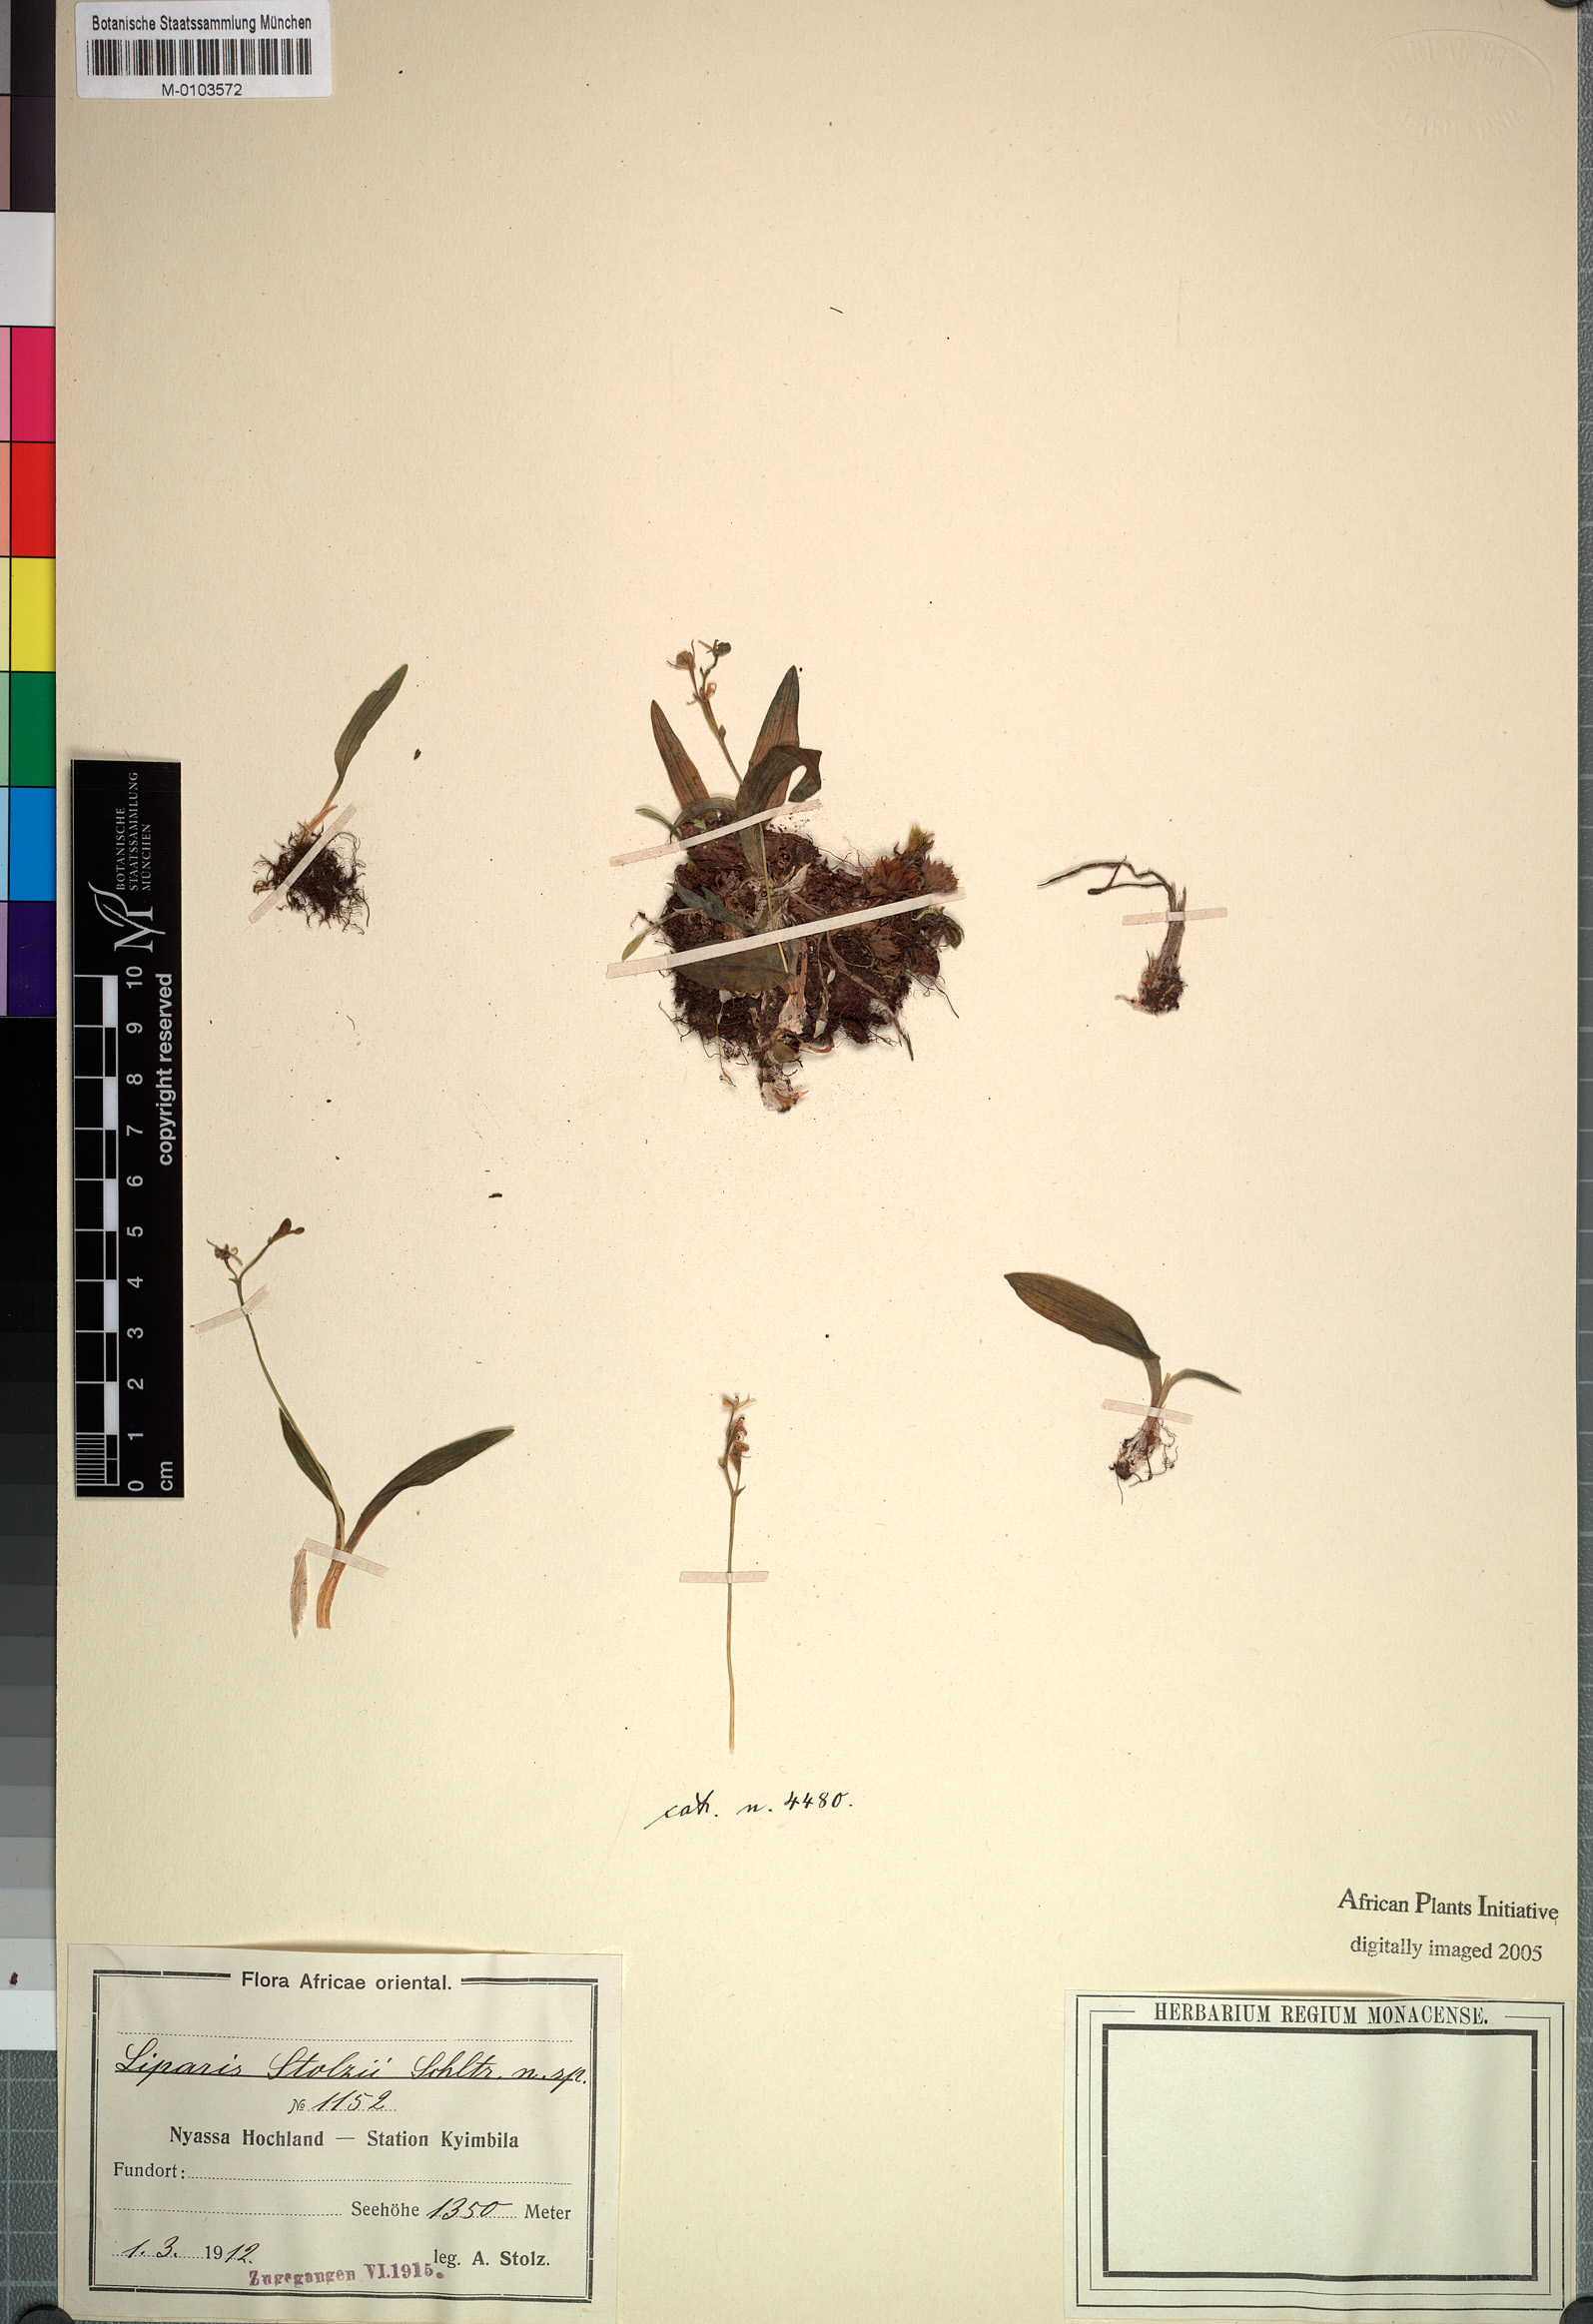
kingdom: Plantae
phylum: Tracheophyta
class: Liliopsida
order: Asparagales
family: Orchidaceae
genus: Liparis
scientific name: Liparis stolzii
